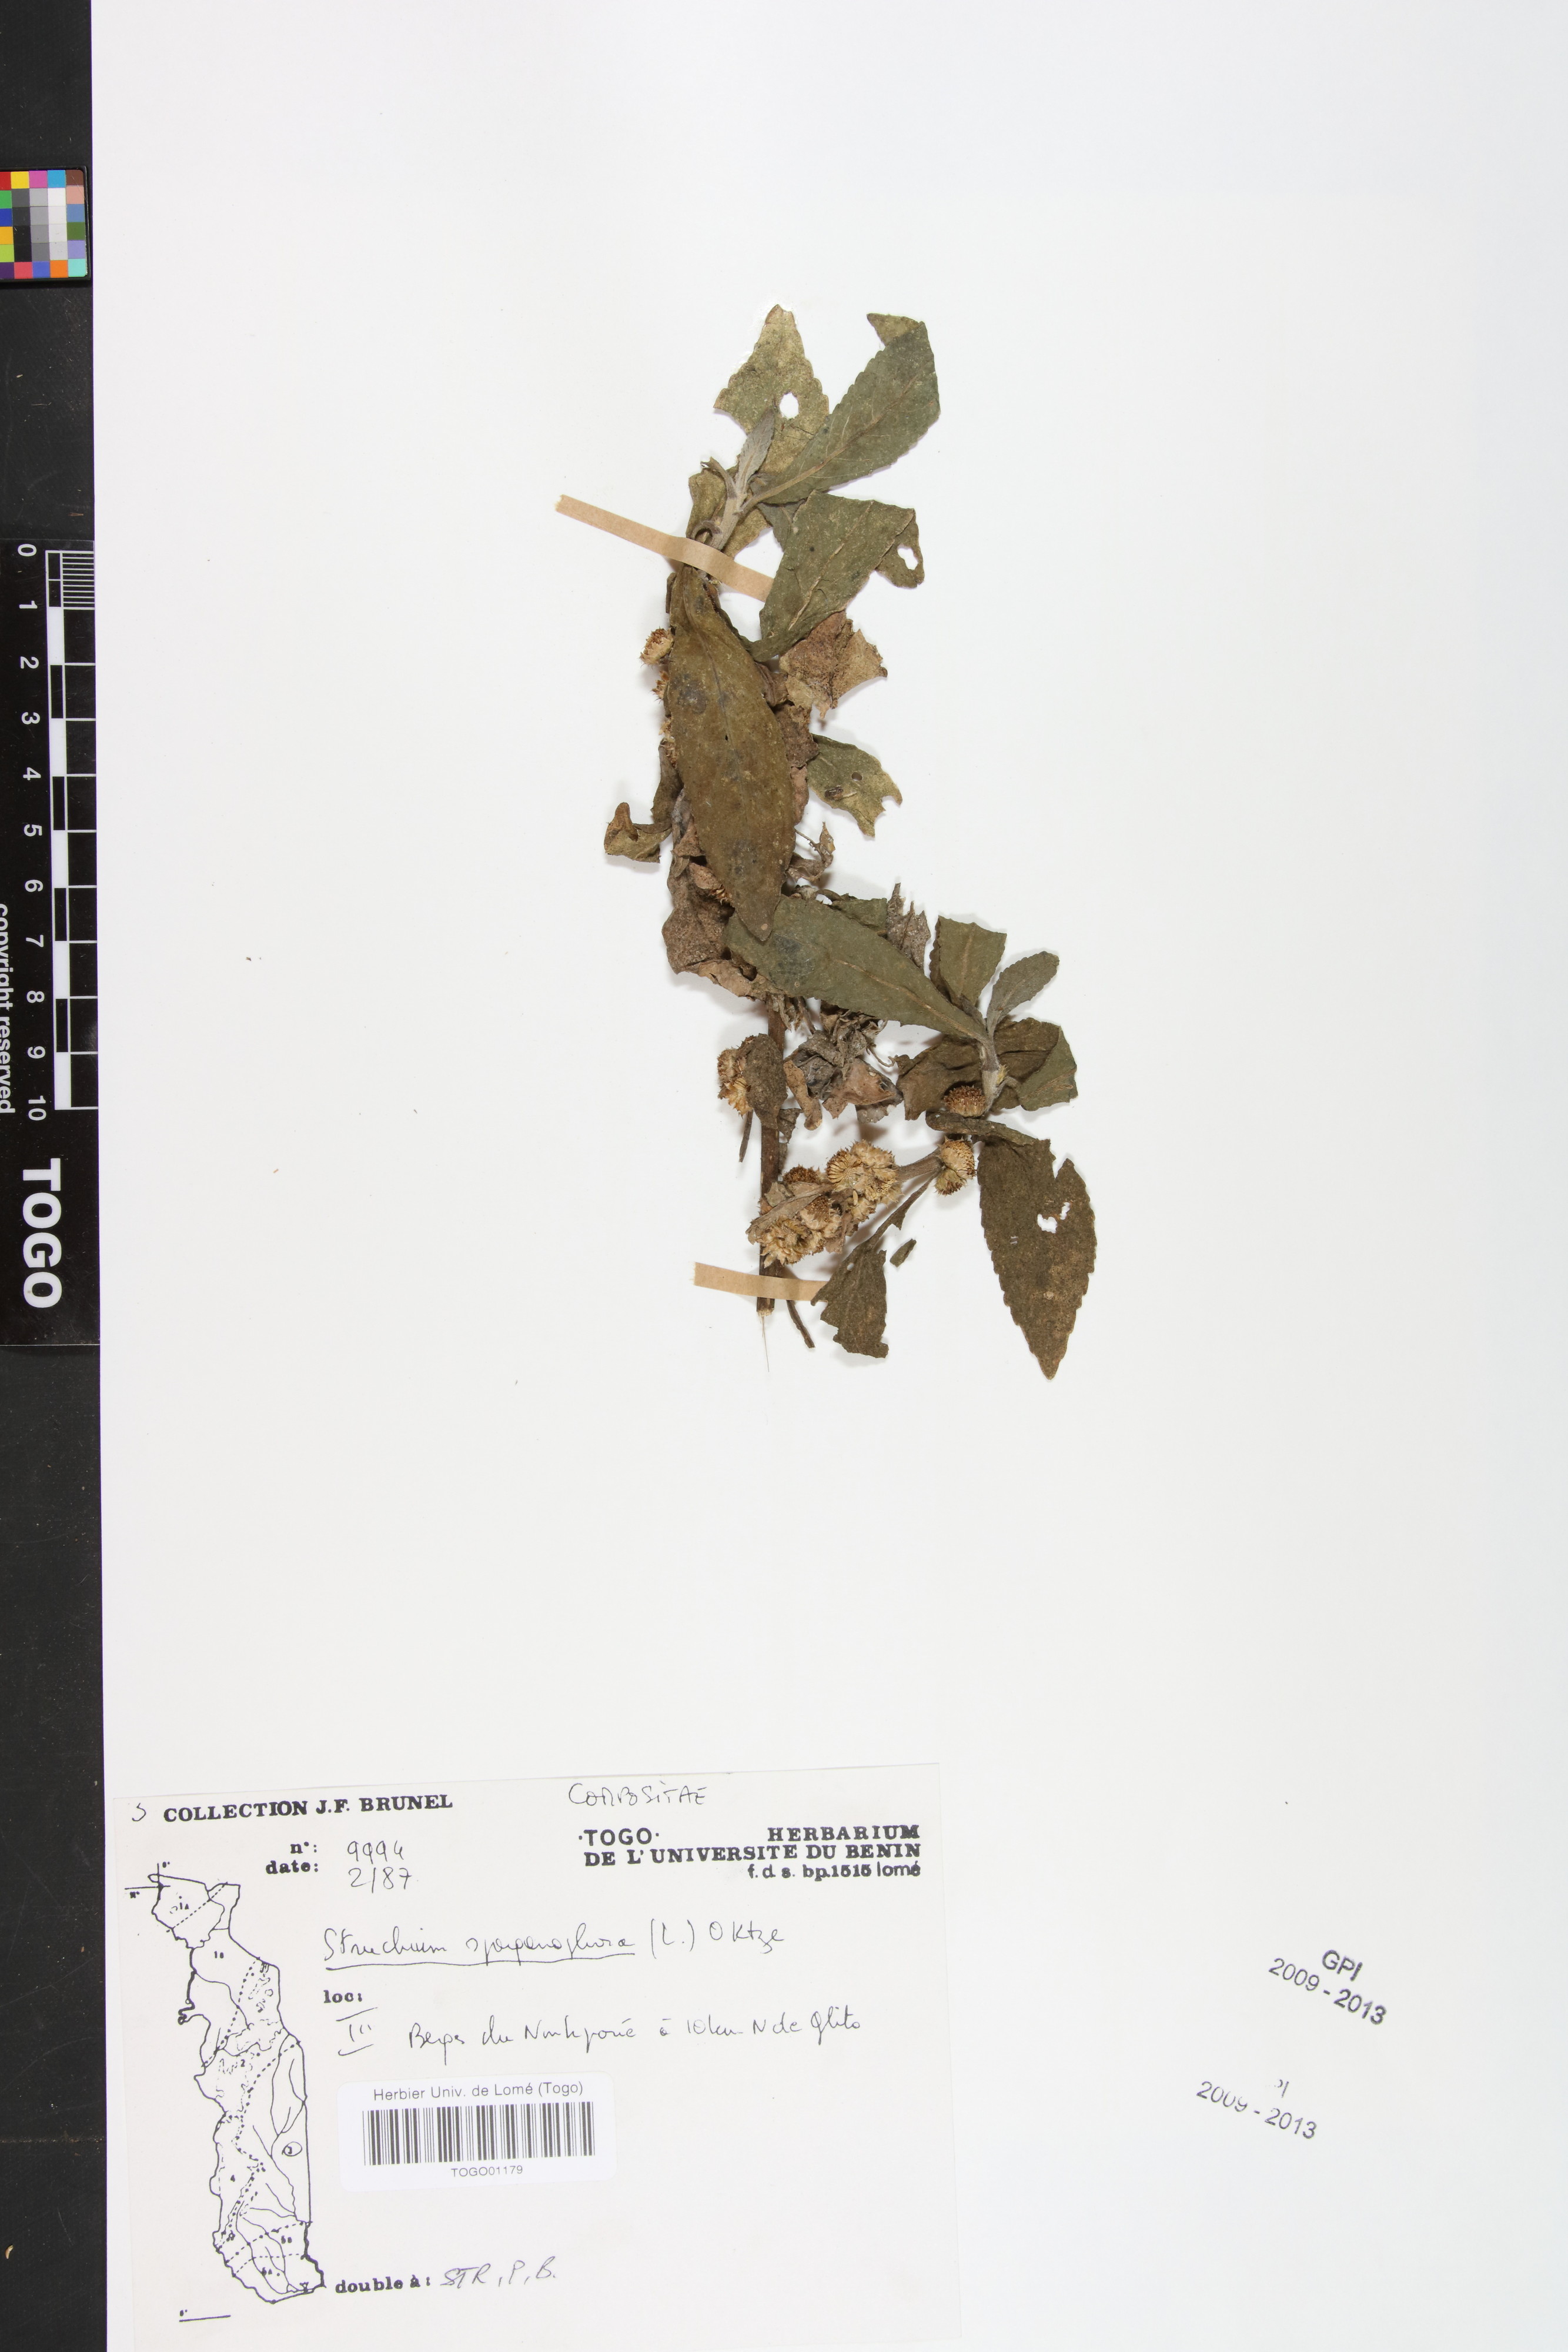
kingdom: Plantae
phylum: Tracheophyta
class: Magnoliopsida
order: Asterales
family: Asteraceae
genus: Struchium
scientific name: Struchium sparganophorum
